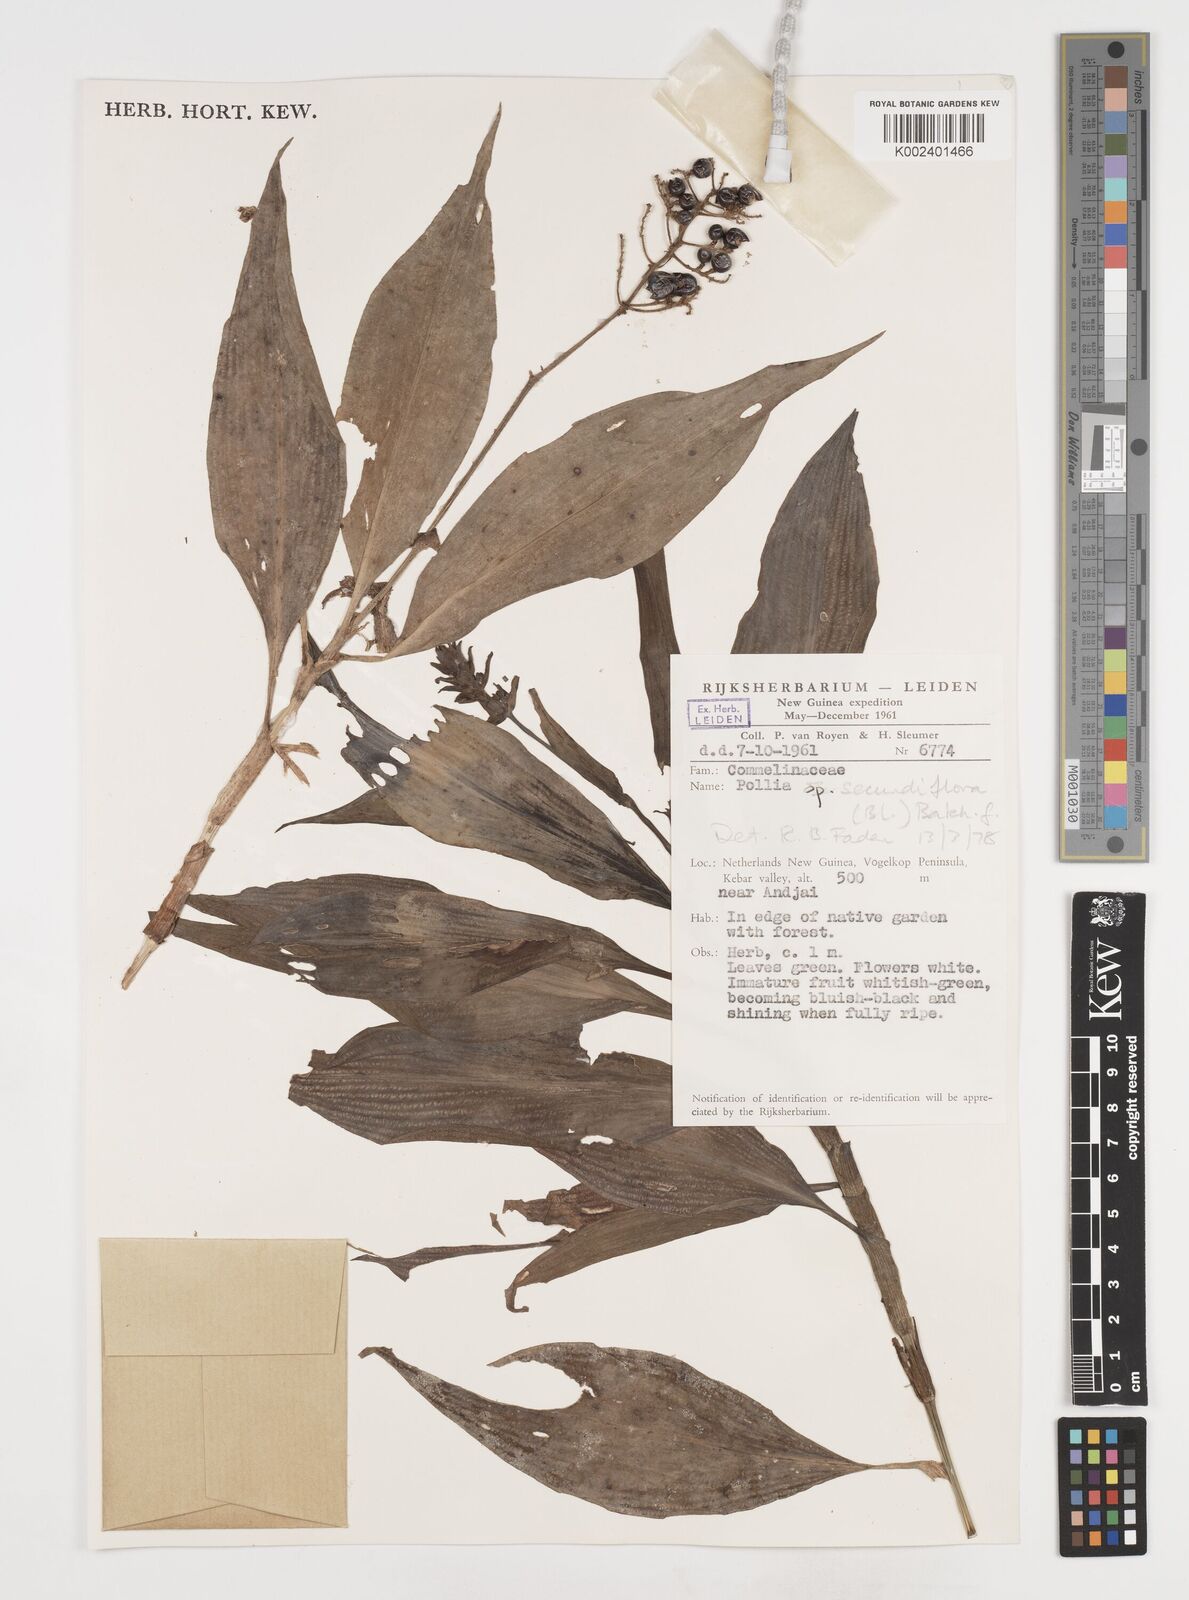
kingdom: Plantae
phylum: Tracheophyta
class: Liliopsida
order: Commelinales
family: Commelinaceae
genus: Pollia
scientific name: Pollia secundiflora
